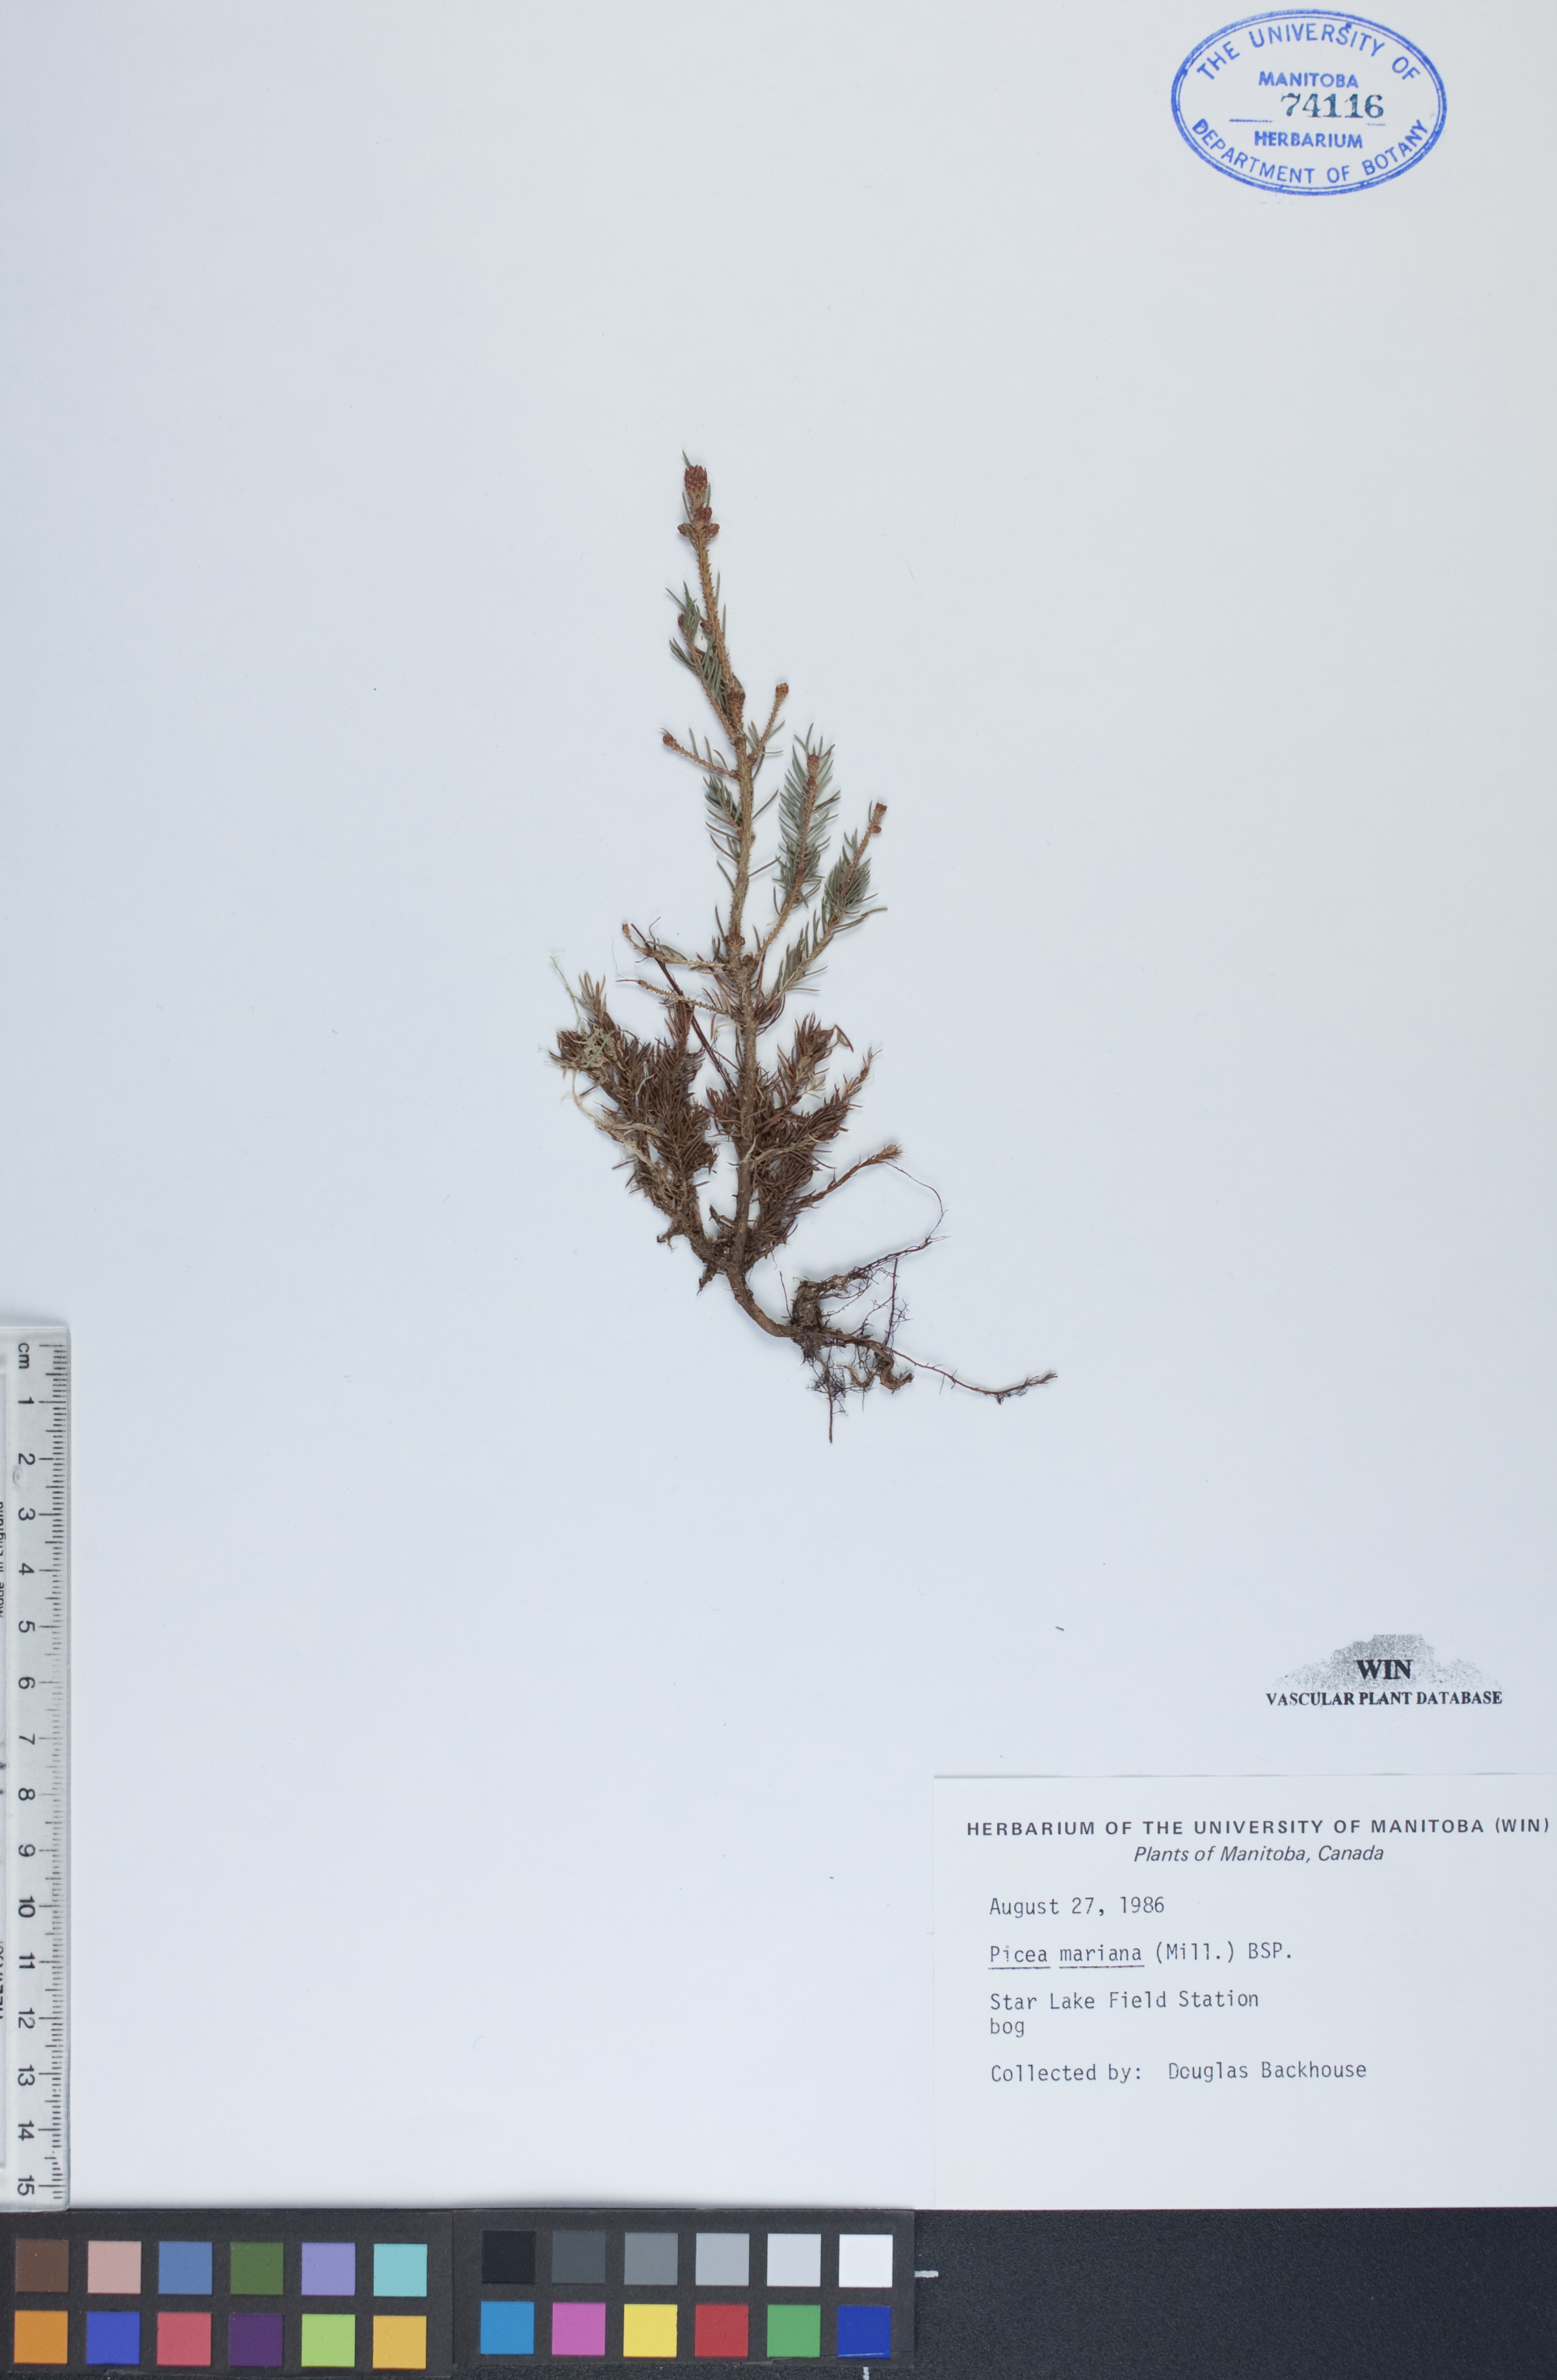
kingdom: Plantae
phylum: Tracheophyta
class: Pinopsida
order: Pinales
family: Pinaceae
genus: Picea
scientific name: Picea mariana
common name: Black spruce
